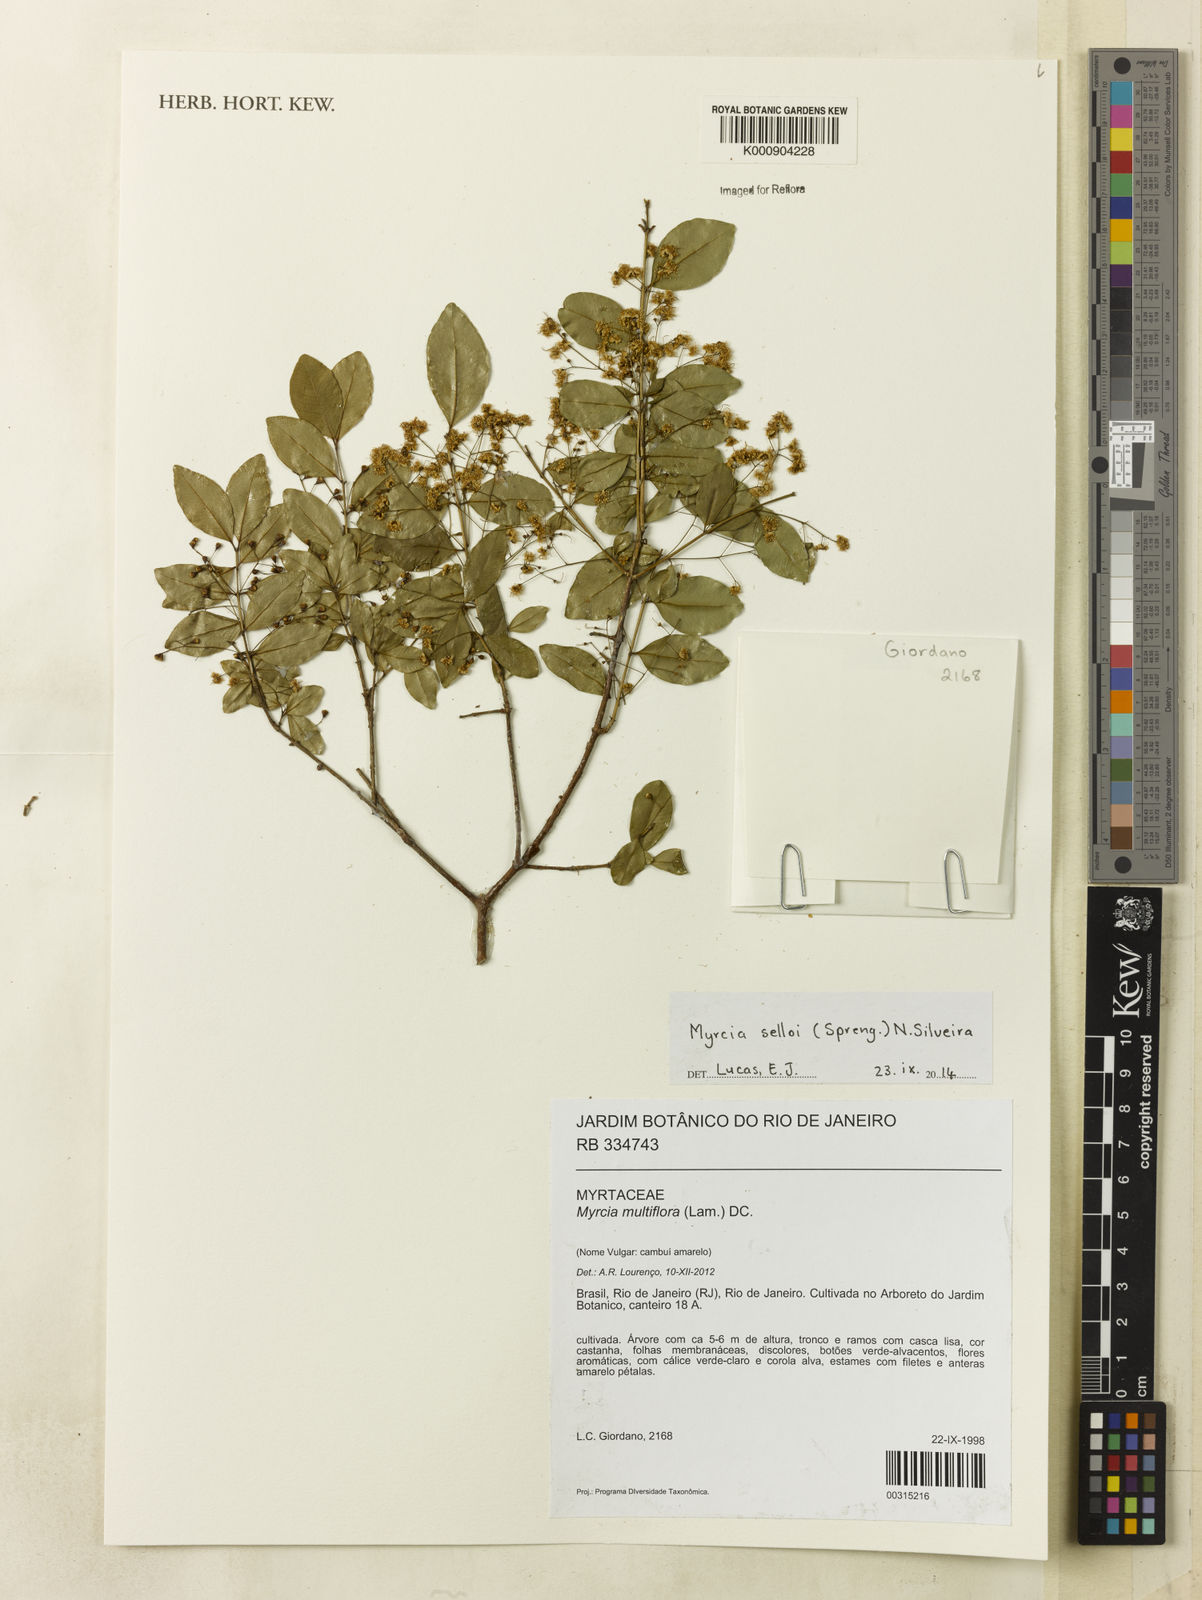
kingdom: Plantae
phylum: Tracheophyta
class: Magnoliopsida
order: Myrtales
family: Myrtaceae
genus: Myrcia
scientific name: Myrcia selloi
